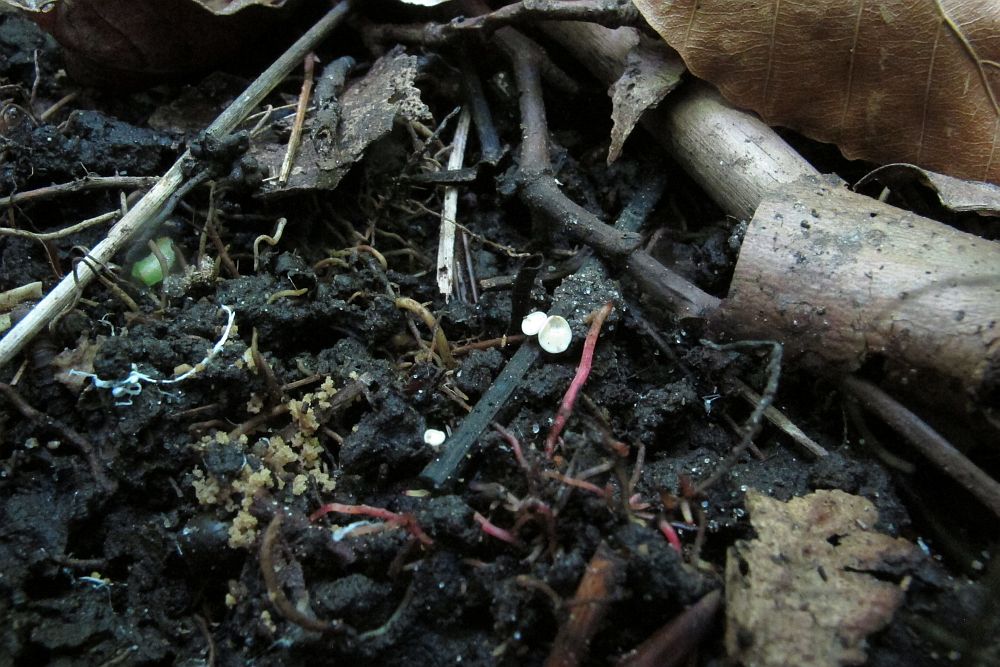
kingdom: Fungi
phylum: Ascomycota
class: Leotiomycetes
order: Helotiales
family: Helotiaceae
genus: Hymenoscyphus
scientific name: Hymenoscyphus fraxineus
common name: asketoptørre-stilkskive
